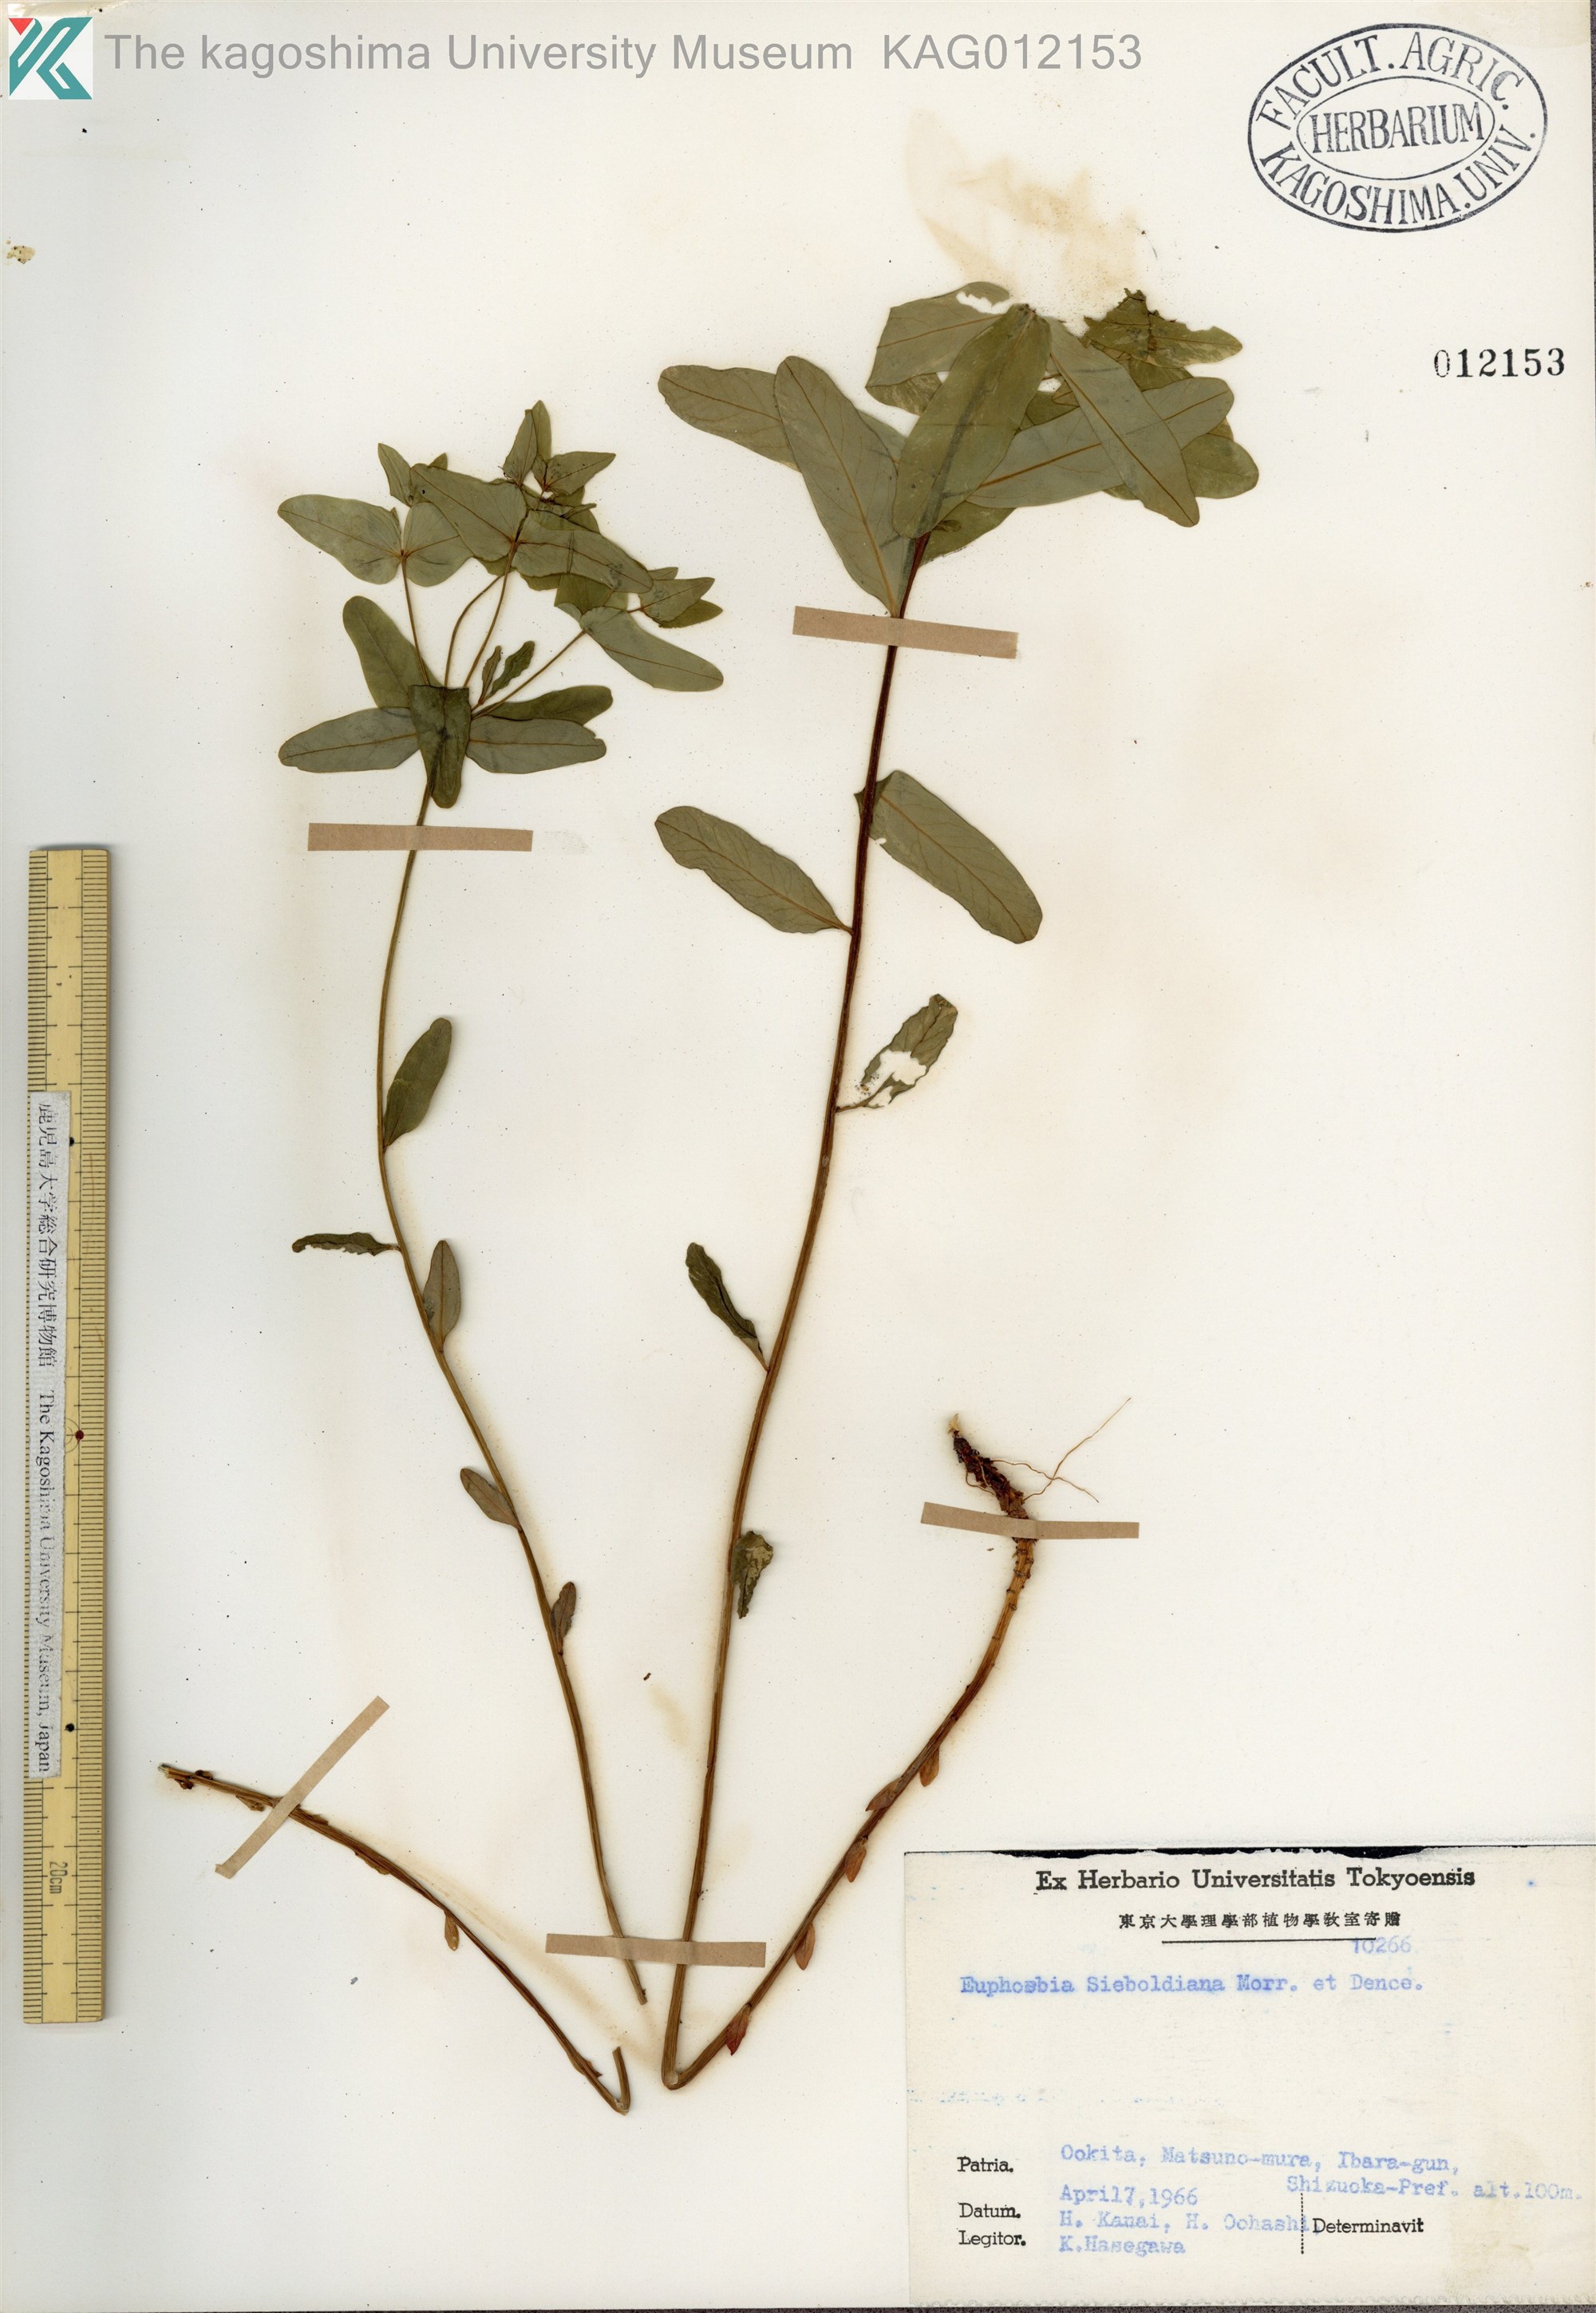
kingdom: Plantae
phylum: Tracheophyta
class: Magnoliopsida
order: Malpighiales
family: Euphorbiaceae
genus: Euphorbia
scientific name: Euphorbia sieboldiana
